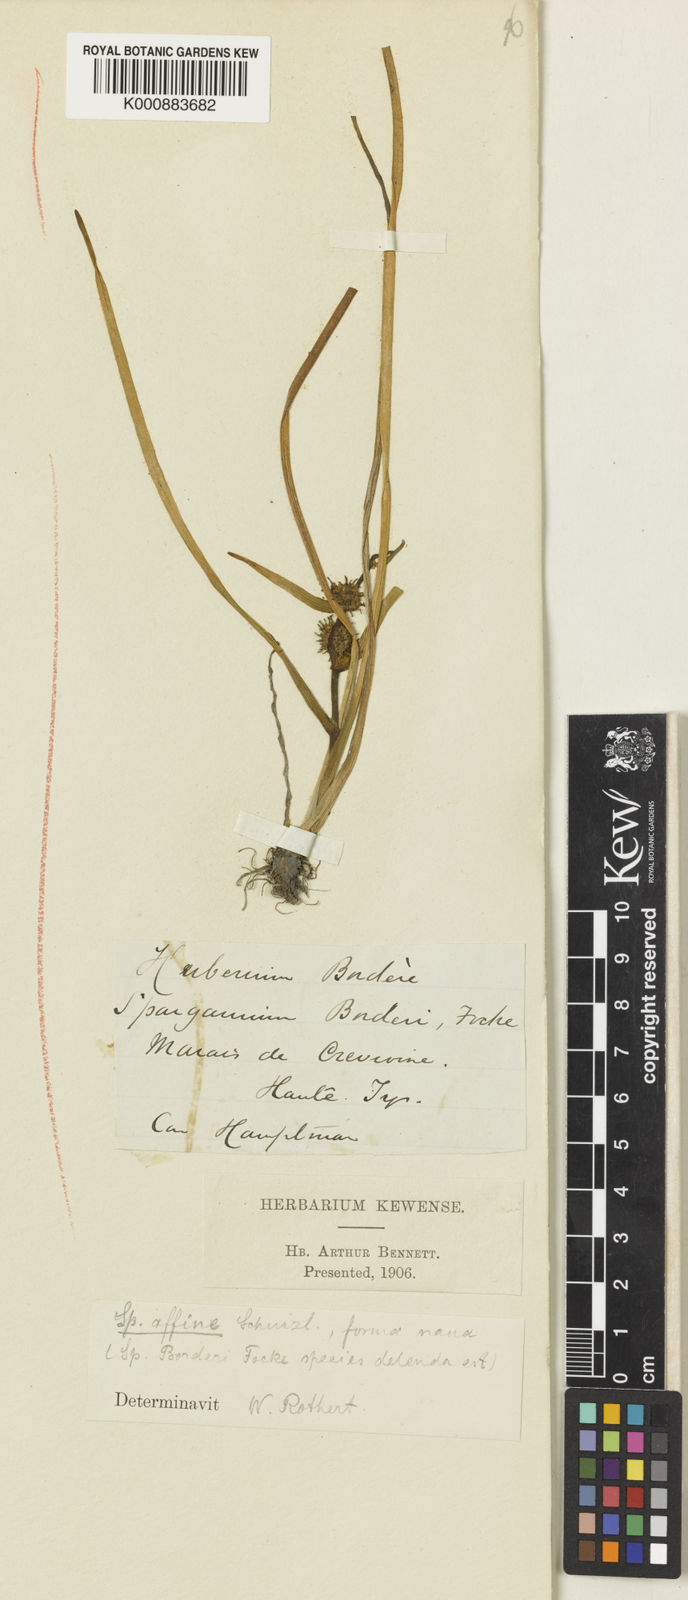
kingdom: Plantae
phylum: Tracheophyta
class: Liliopsida
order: Poales
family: Typhaceae
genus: Sparganium
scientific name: Sparganium angustifolium
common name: Floating bur-reed
